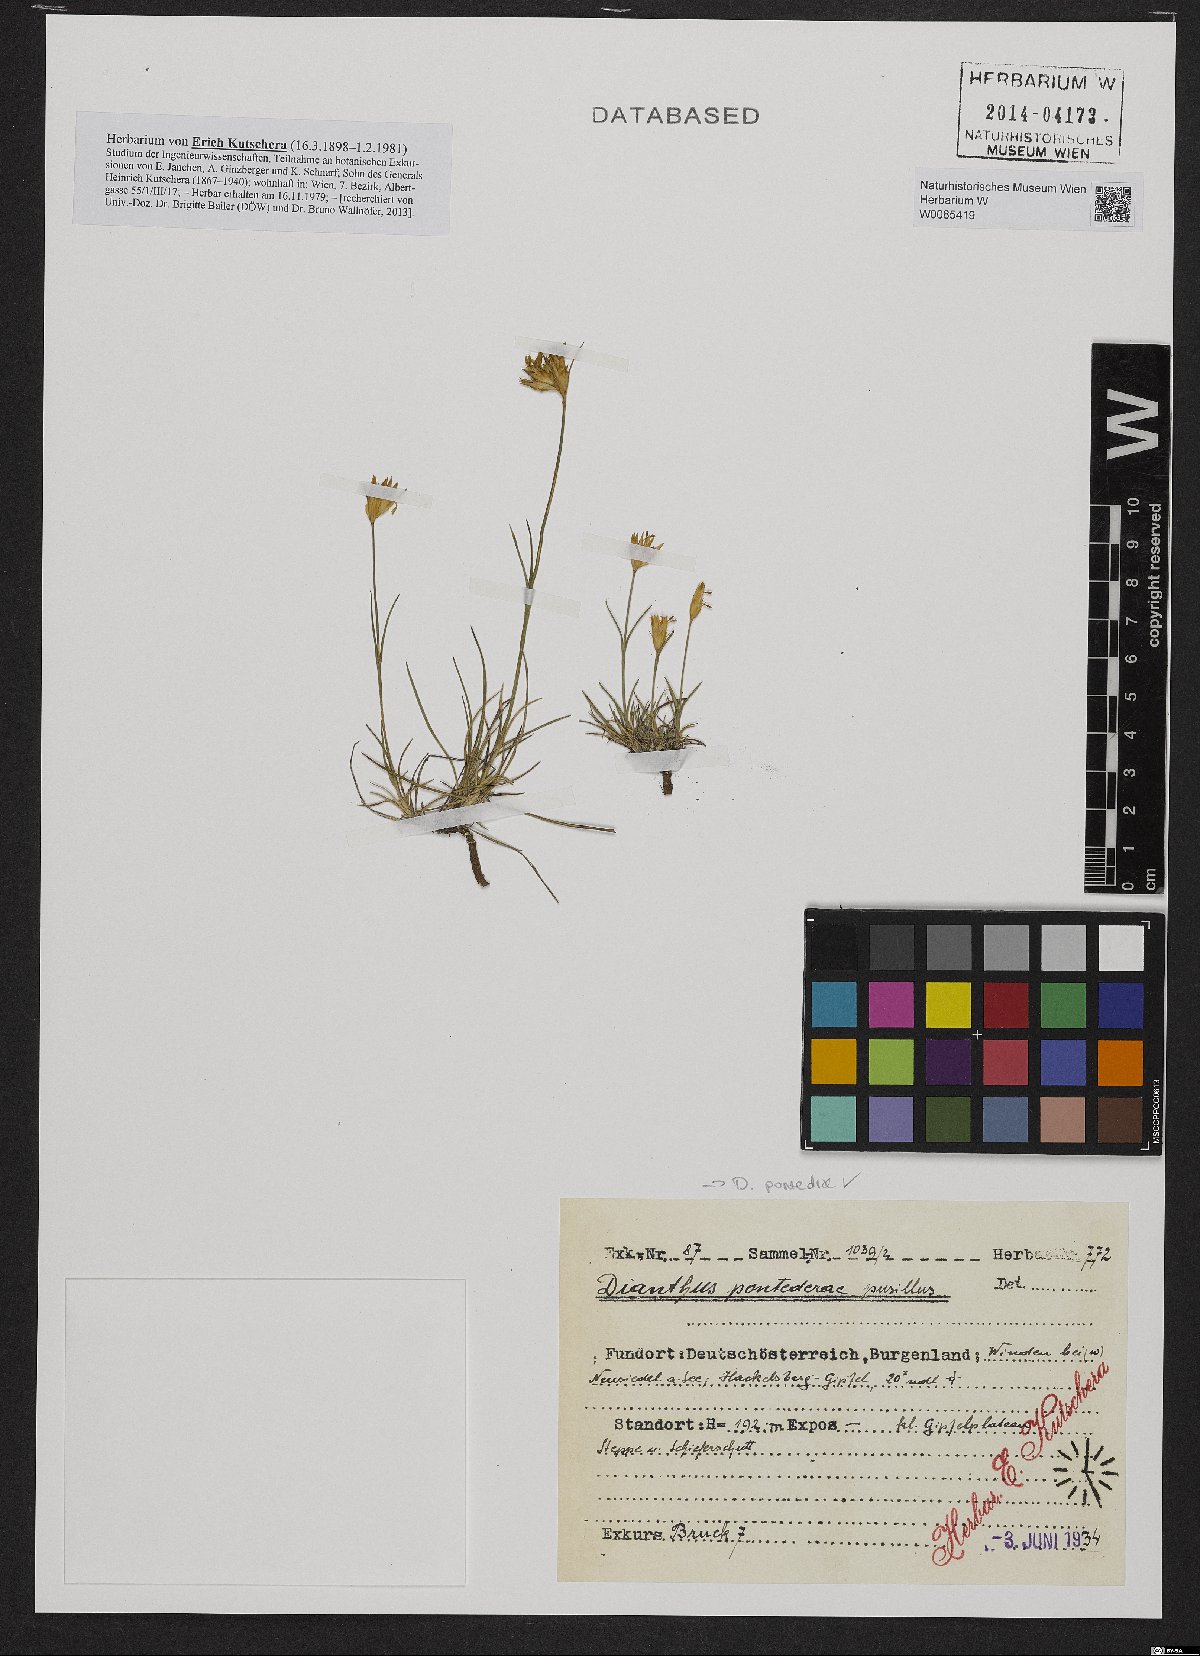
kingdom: Plantae
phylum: Tracheophyta
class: Magnoliopsida
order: Caryophyllales
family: Caryophyllaceae
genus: Dianthus
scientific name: Dianthus pontederae
